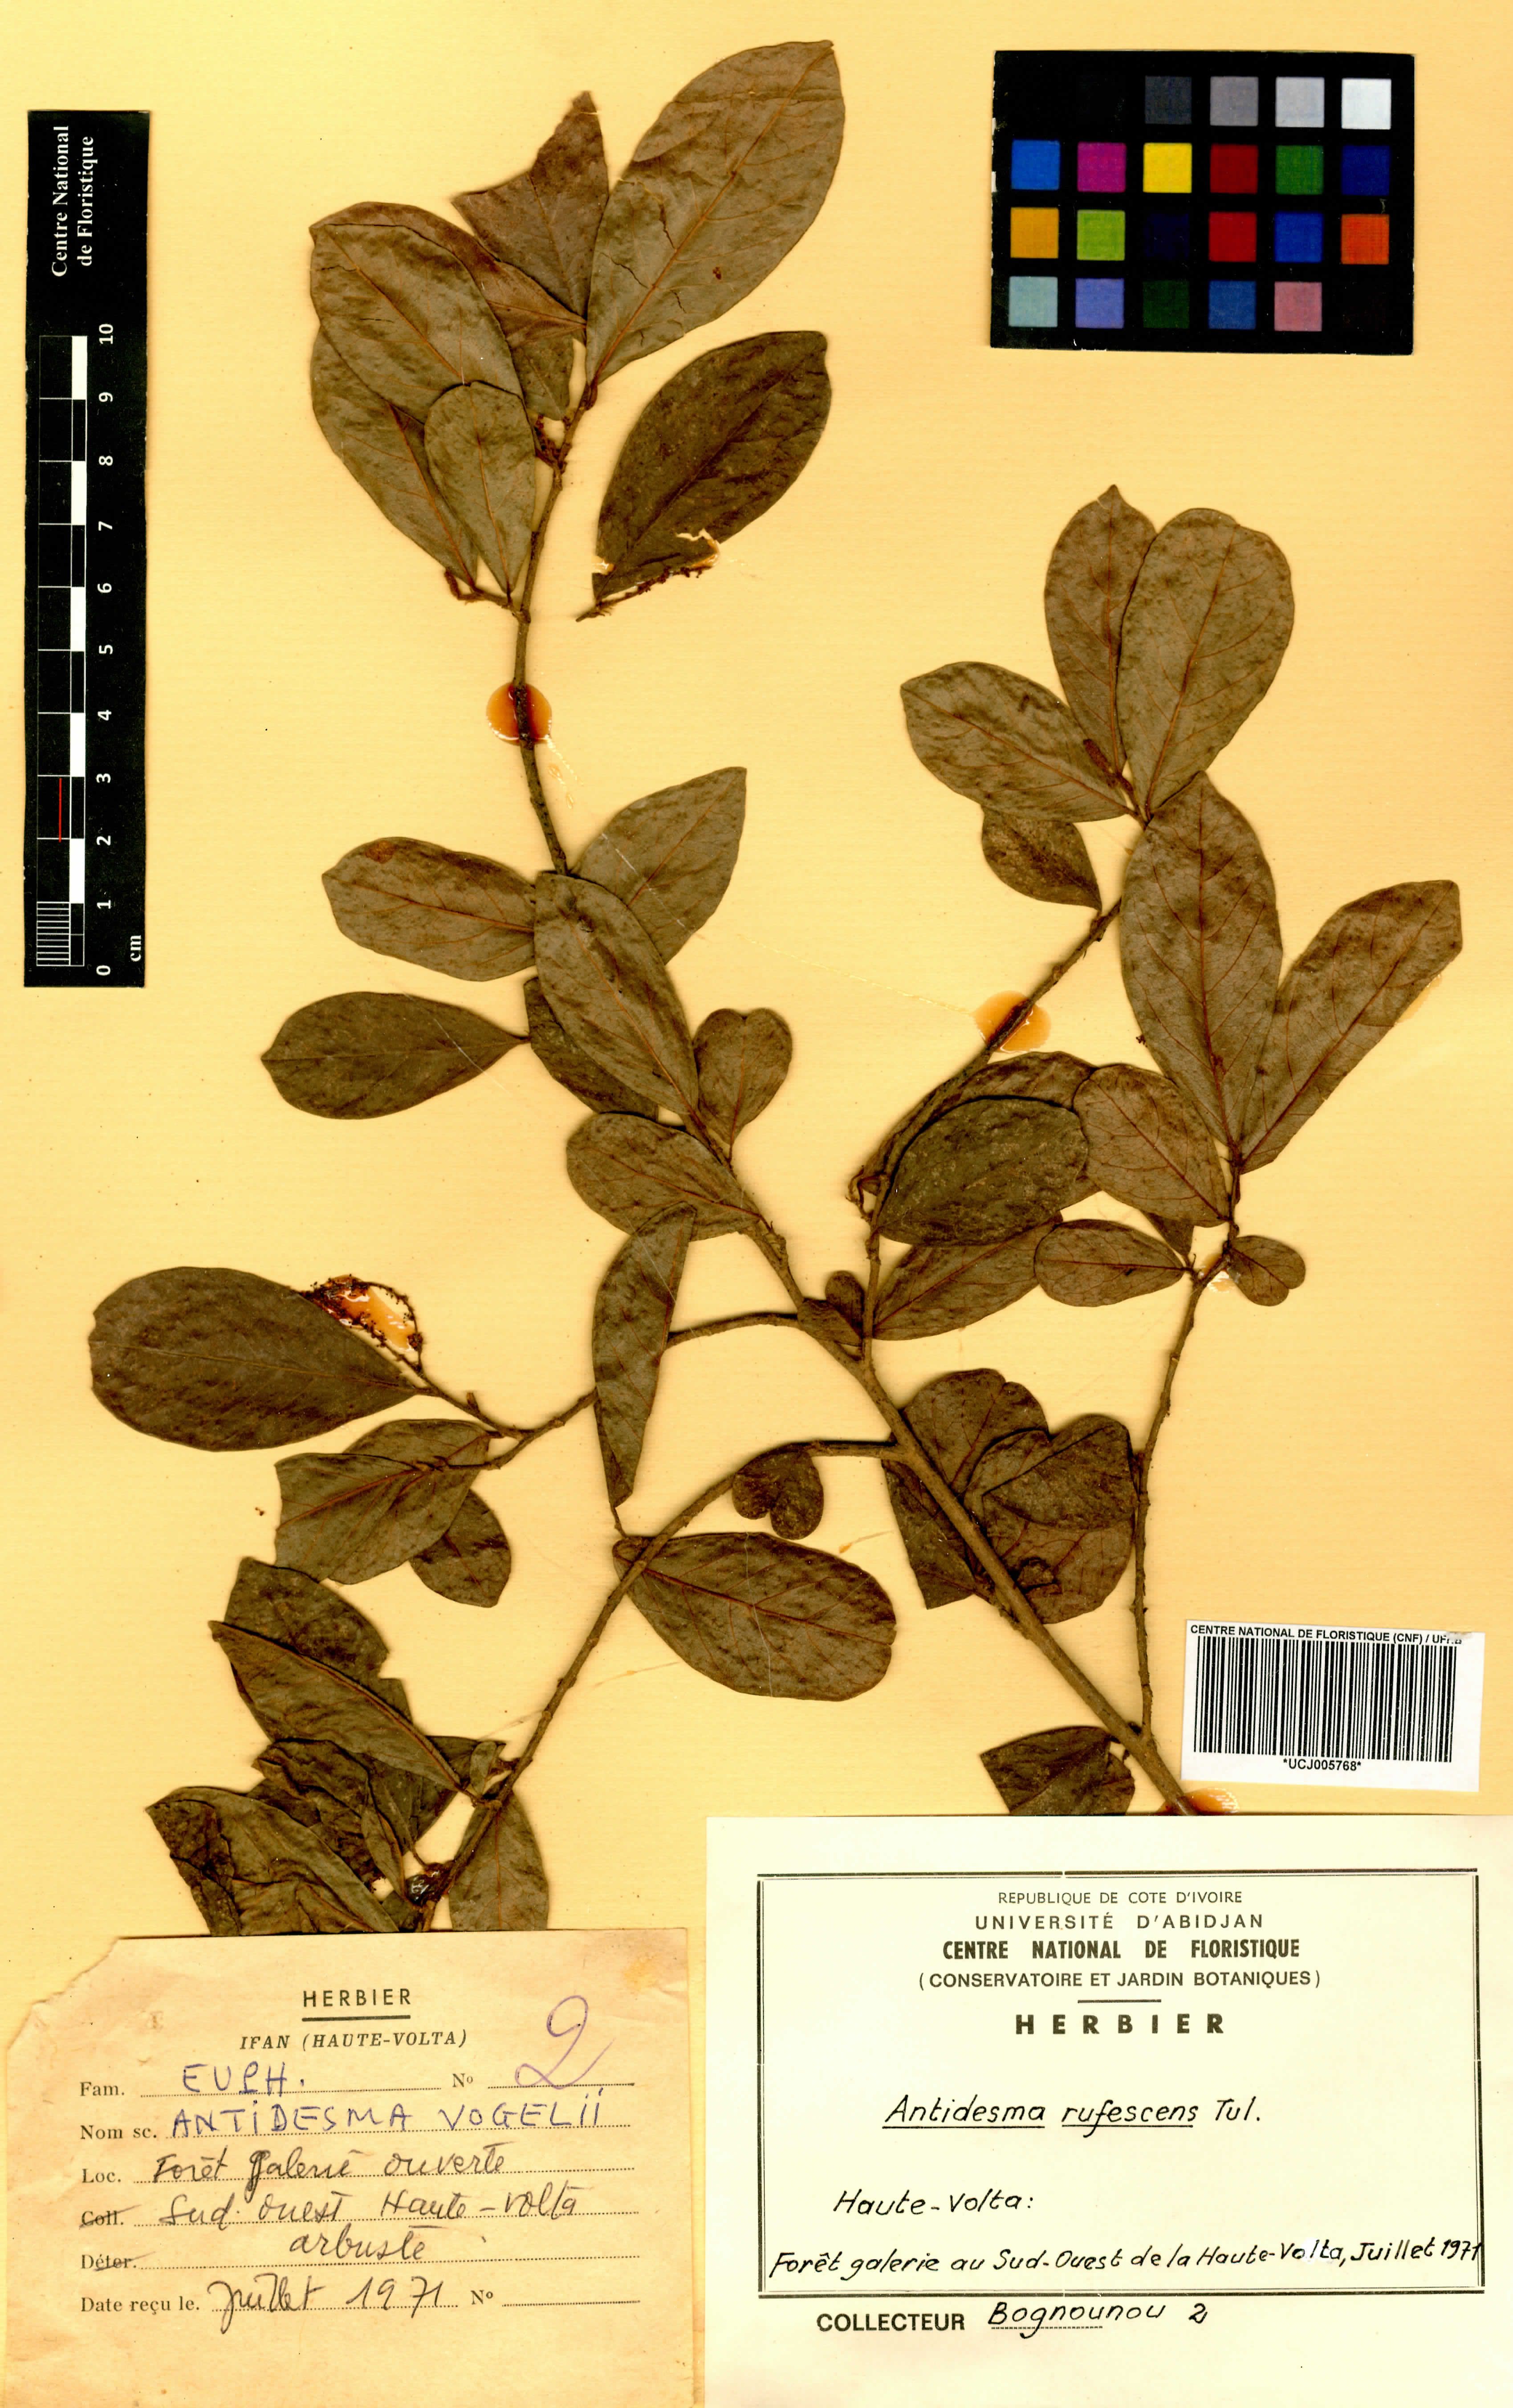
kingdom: Plantae
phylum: Tracheophyta
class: Magnoliopsida
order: Malpighiales
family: Phyllanthaceae
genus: Antidesma
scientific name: Antidesma rufescens
